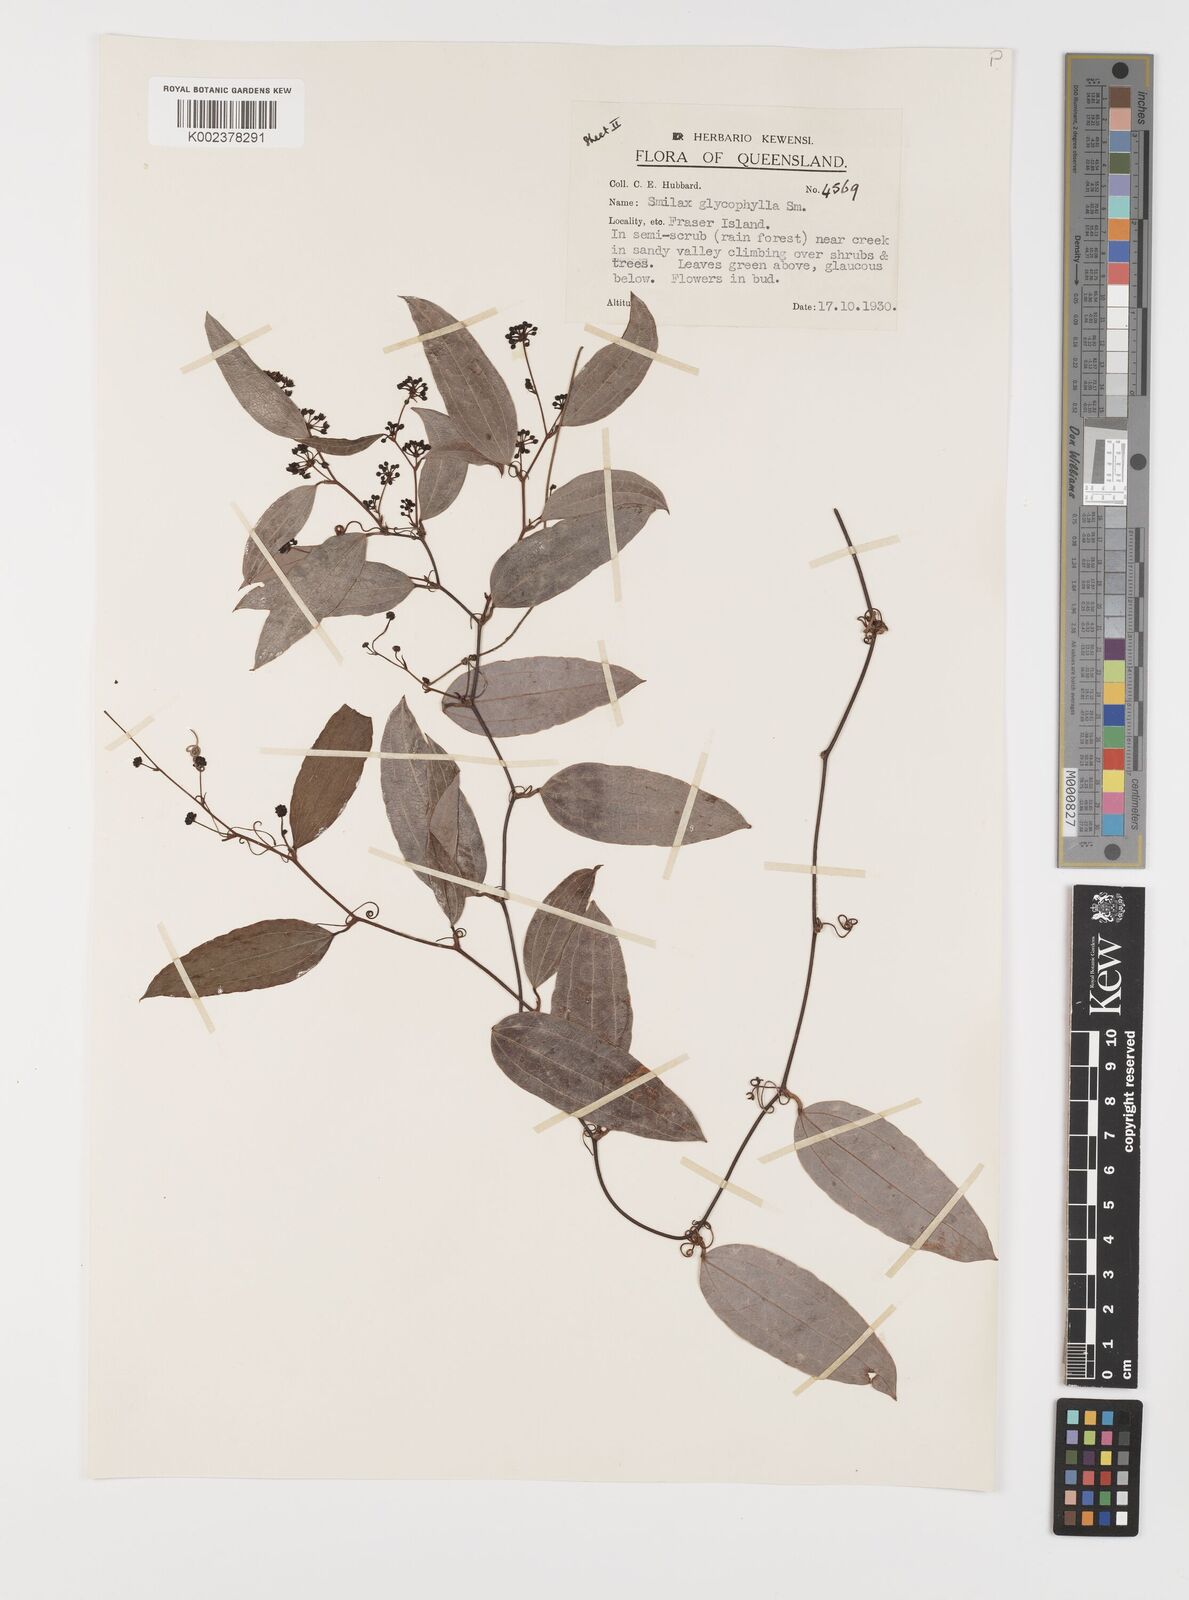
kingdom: Plantae
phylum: Tracheophyta
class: Liliopsida
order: Liliales
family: Smilacaceae
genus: Smilax
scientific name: Smilax leucophylla
